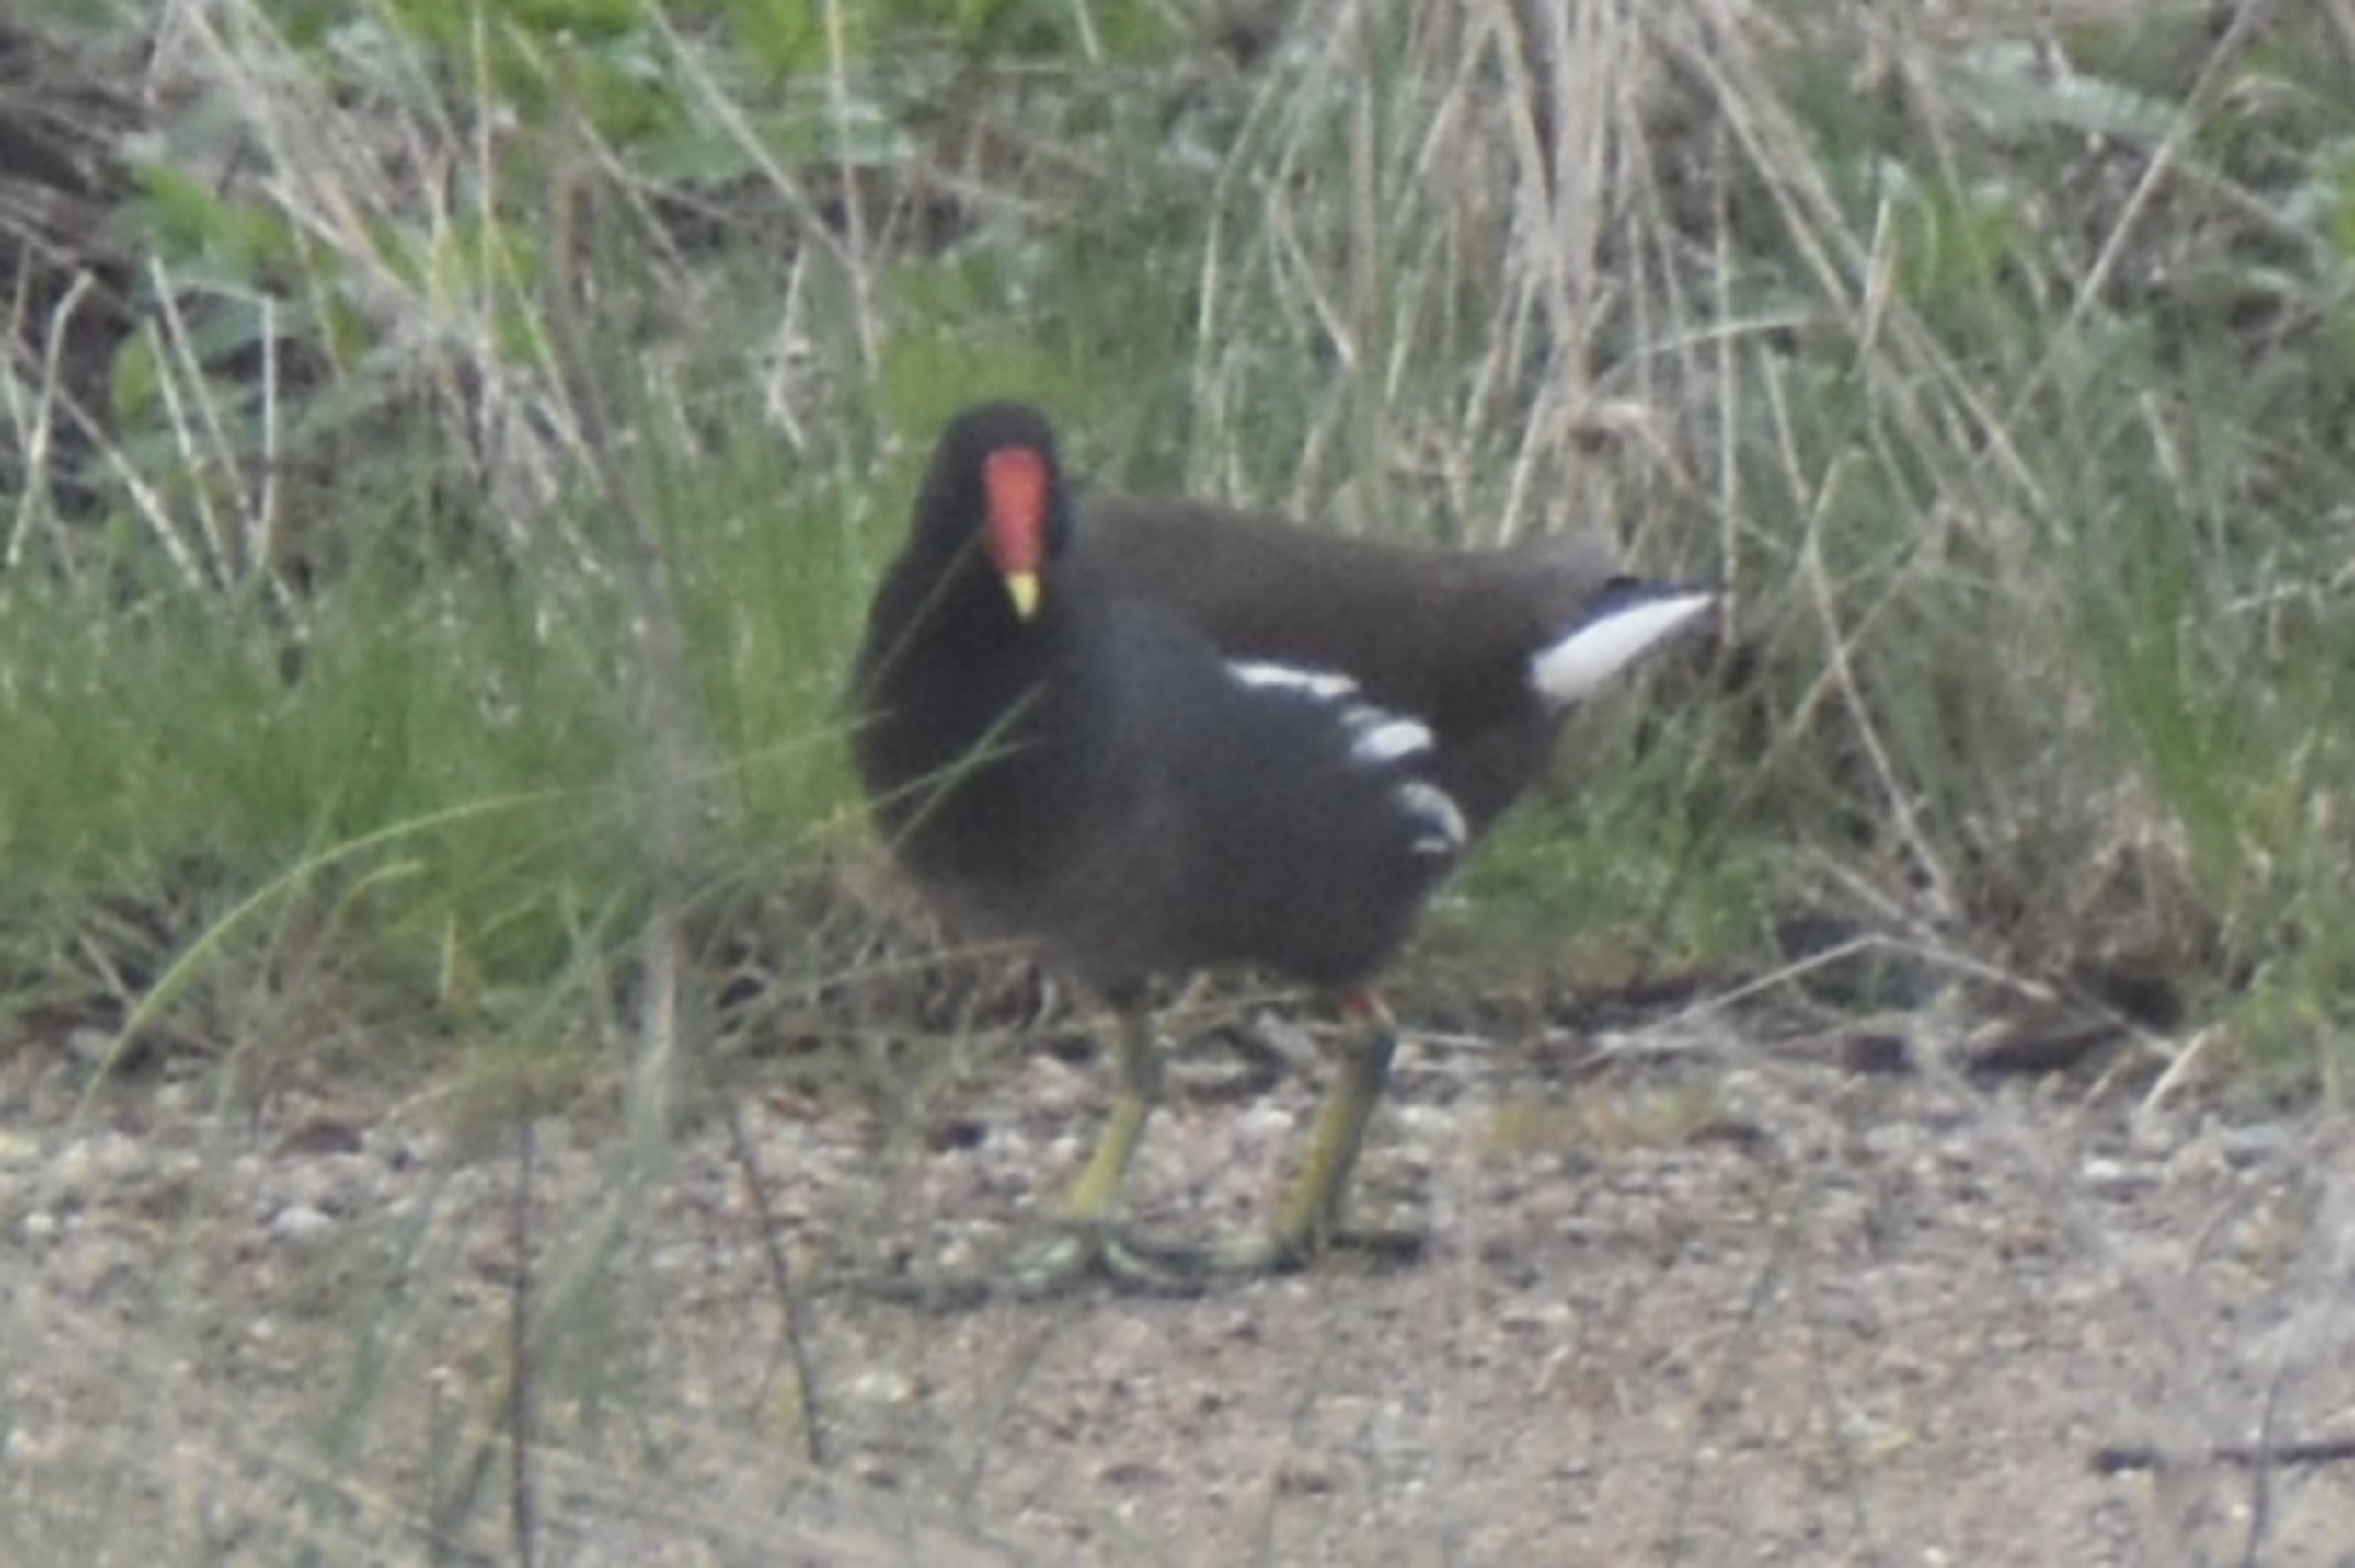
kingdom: Animalia
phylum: Chordata
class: Aves
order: Gruiformes
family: Rallidae
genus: Gallinula
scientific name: Gallinula chloropus
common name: Grønbenet rørhøne
